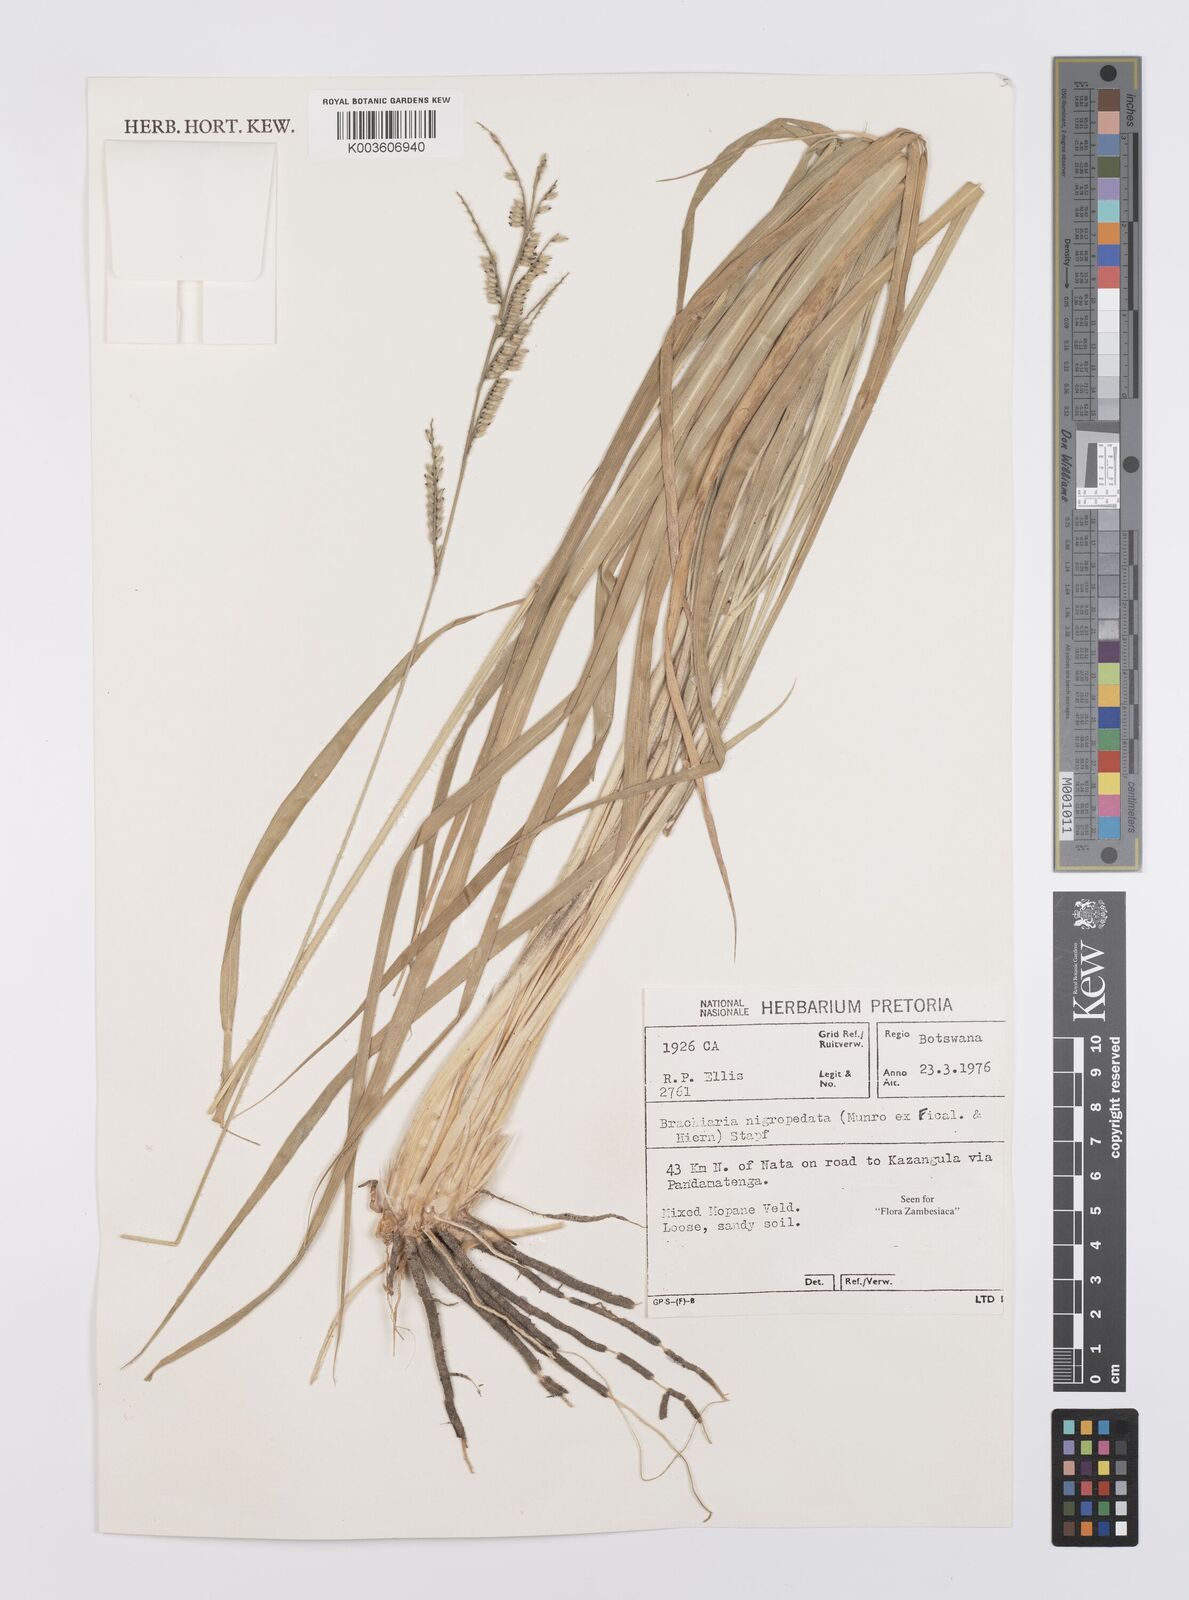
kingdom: Plantae
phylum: Tracheophyta
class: Liliopsida
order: Poales
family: Poaceae
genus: Urochloa
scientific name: Urochloa nigropedata
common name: Spotted signal grass
